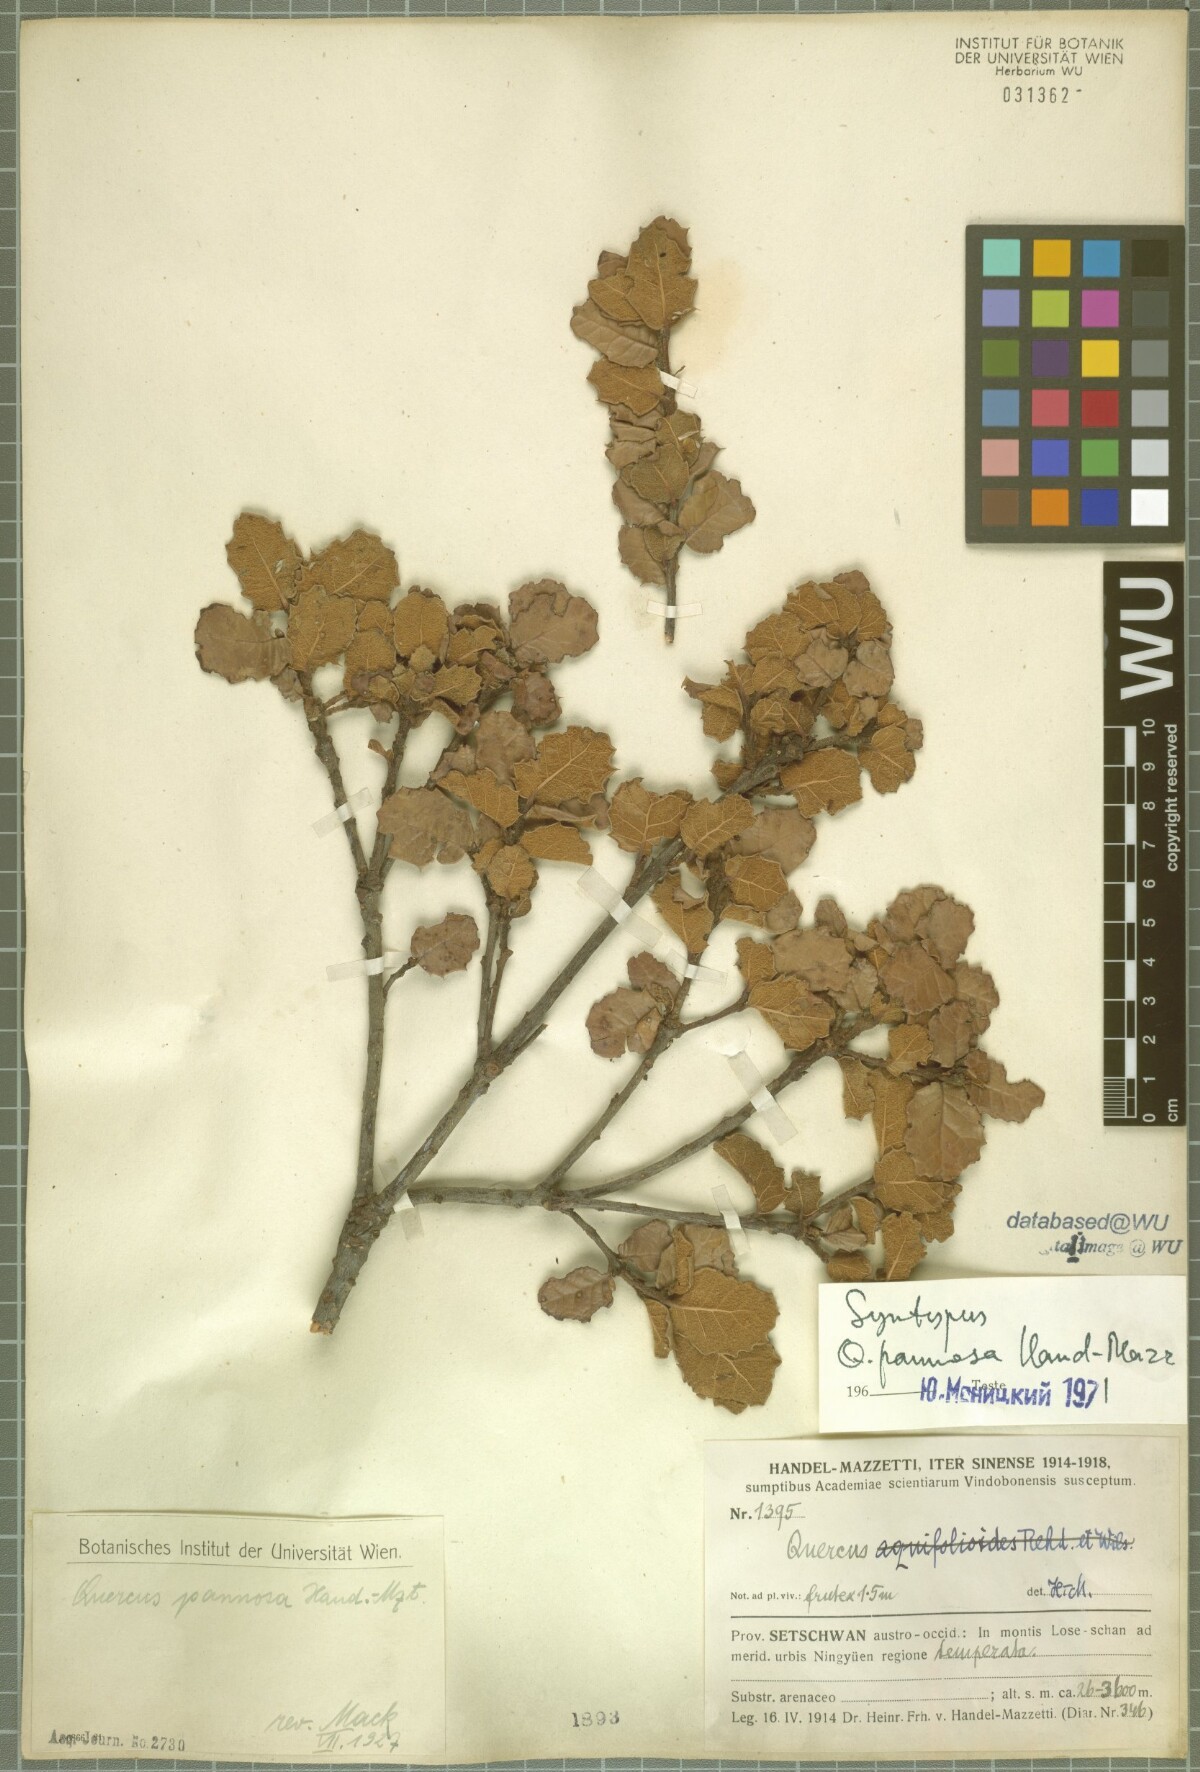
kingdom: Plantae
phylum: Tracheophyta
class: Magnoliopsida
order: Fagales
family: Fagaceae
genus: Quercus
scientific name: Quercus pannosa
